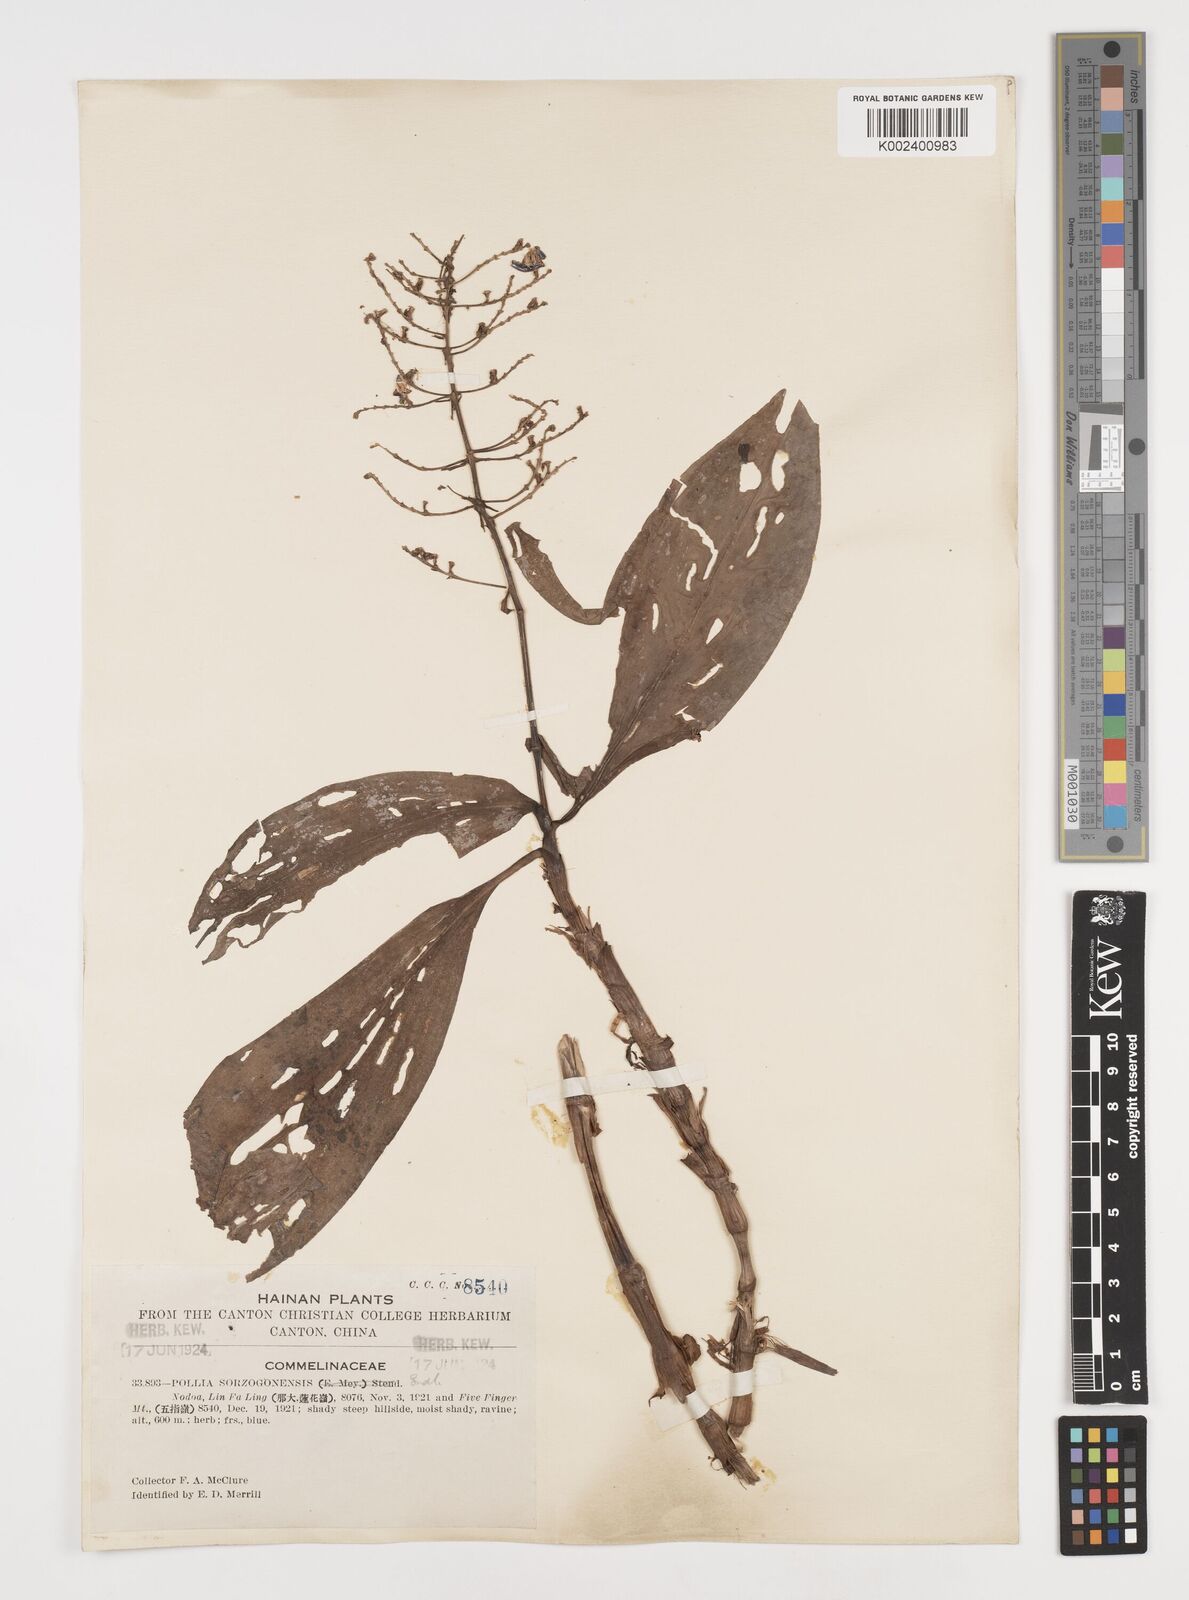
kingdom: Plantae
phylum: Tracheophyta
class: Liliopsida
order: Commelinales
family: Commelinaceae
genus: Pollia
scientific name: Pollia secundiflora
